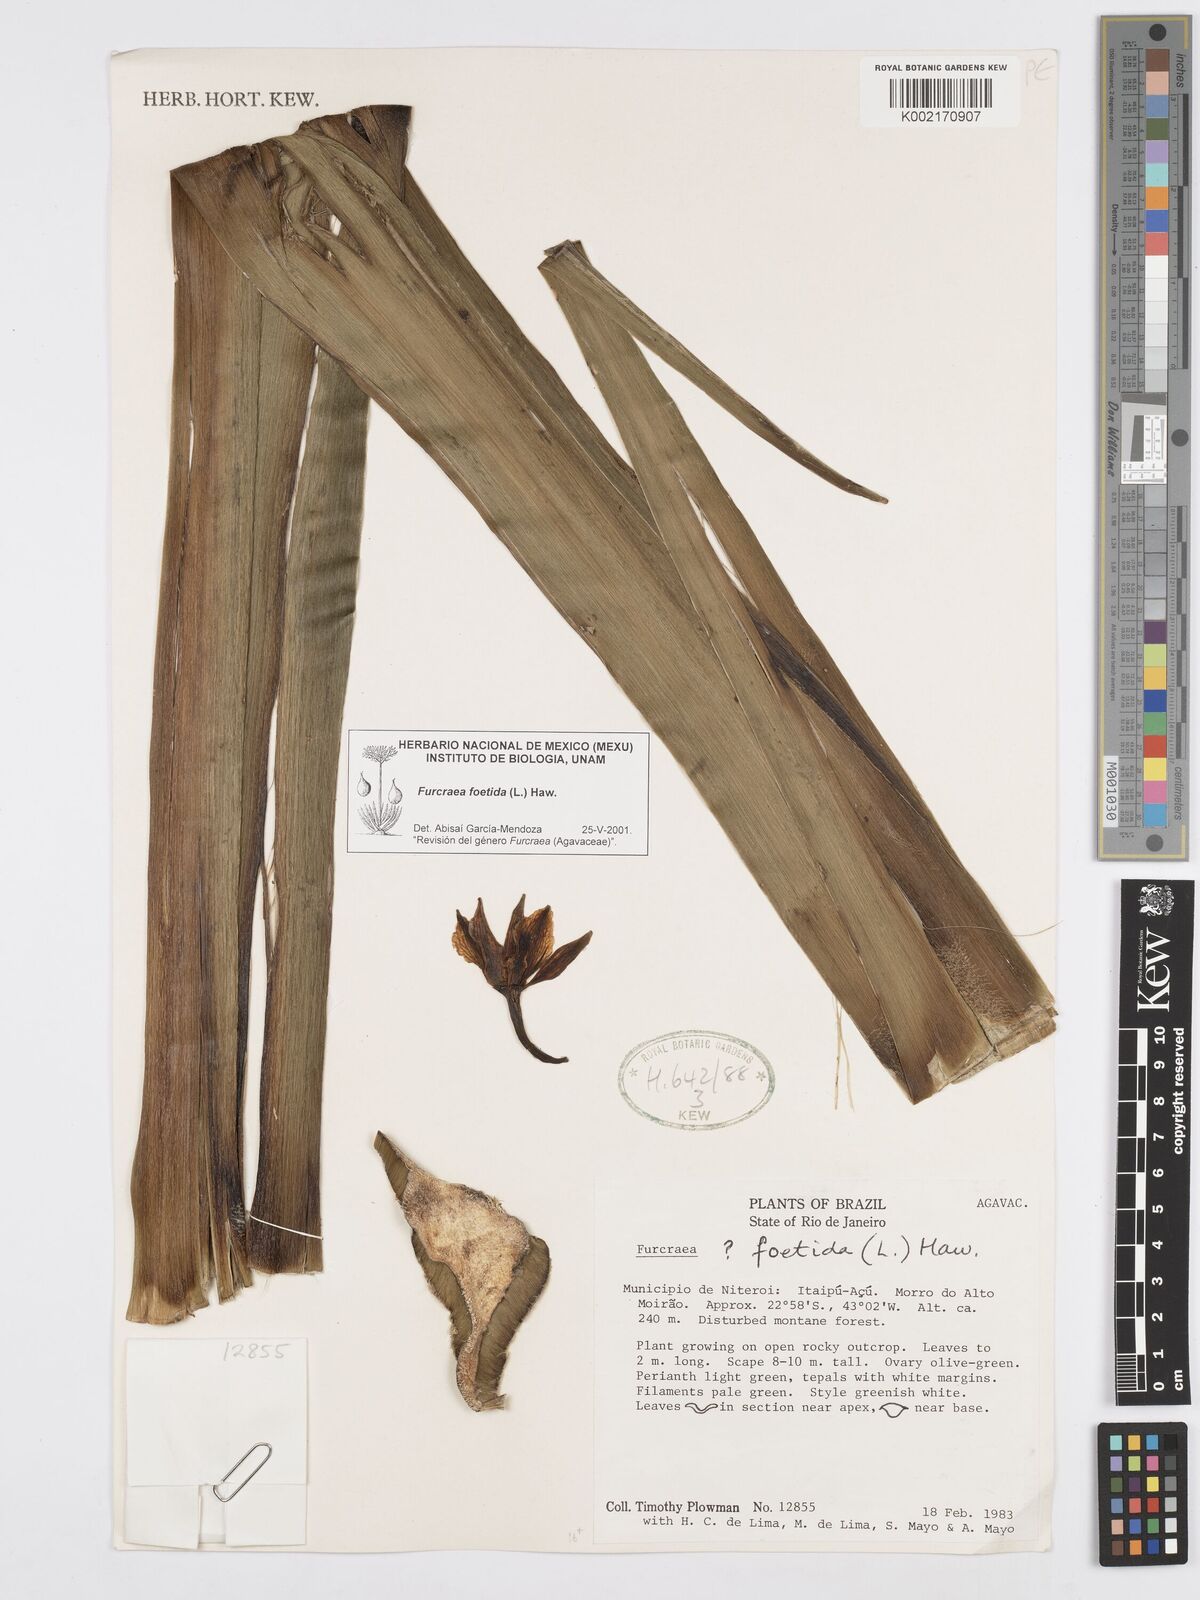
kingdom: Plantae
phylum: Tracheophyta
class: Liliopsida
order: Asparagales
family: Asparagaceae
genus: Furcraea
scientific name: Furcraea foetida
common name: Mauritius hemp
